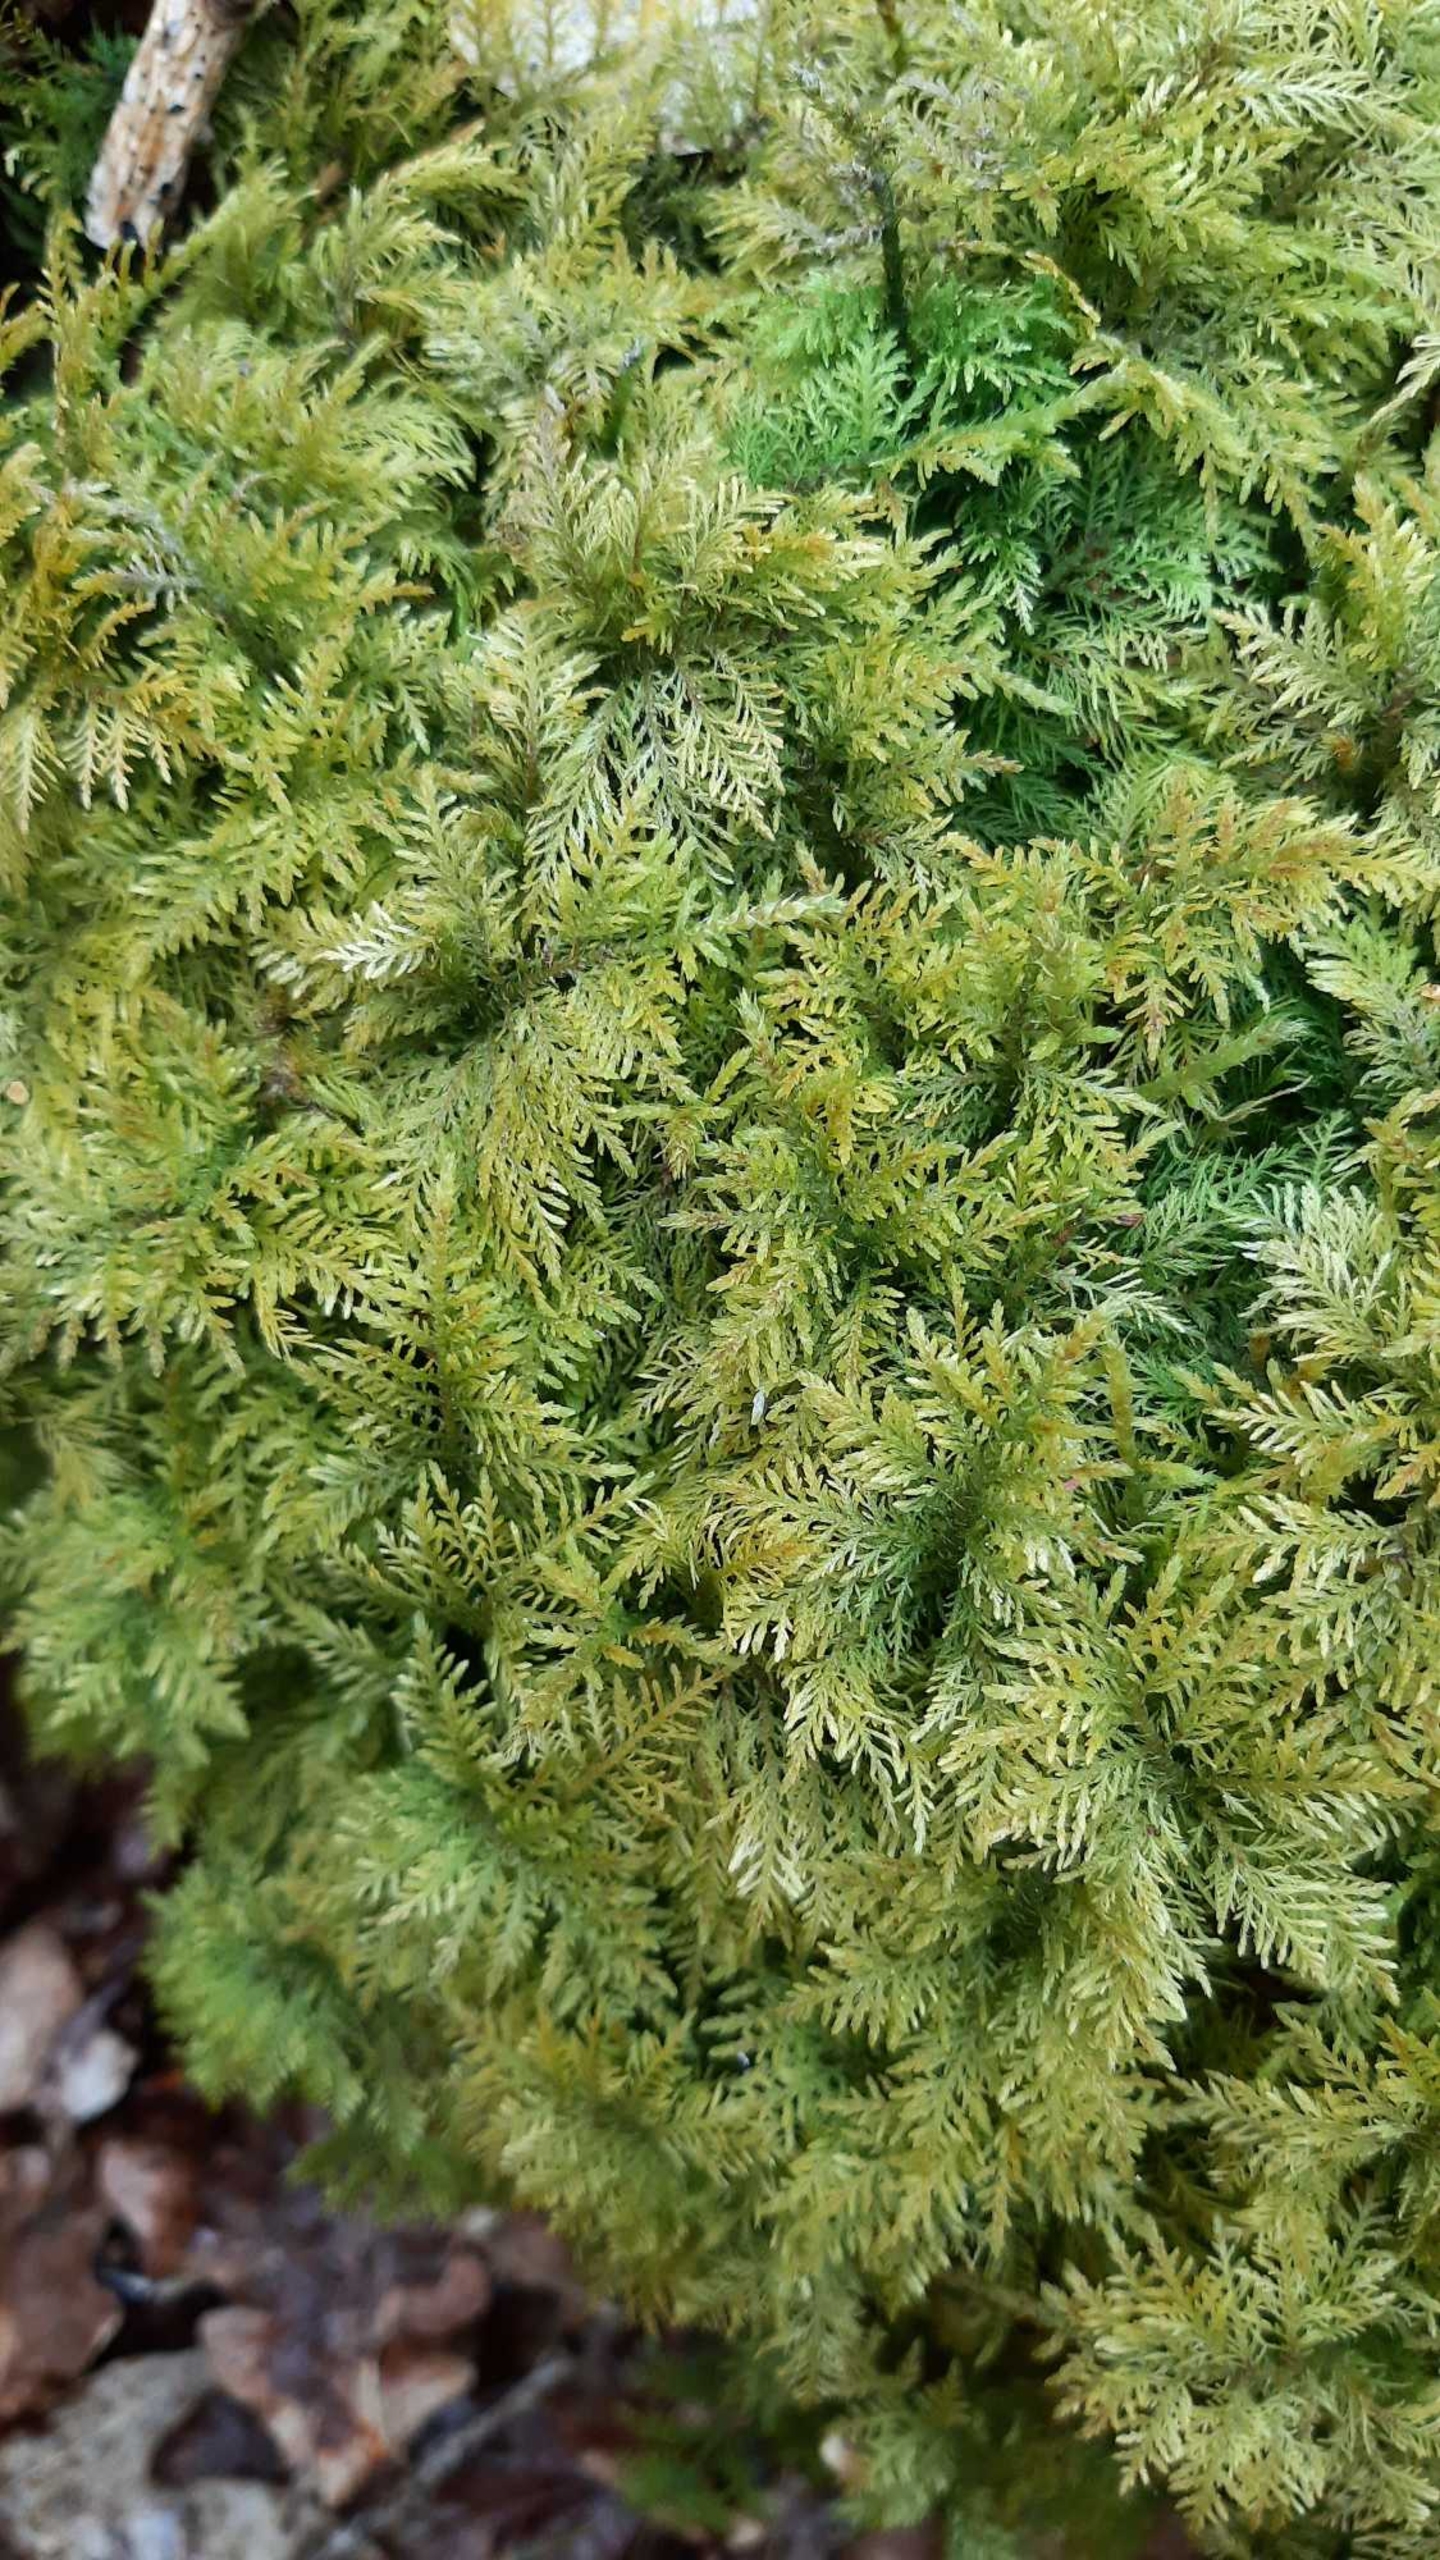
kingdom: Plantae
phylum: Bryophyta
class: Bryopsida
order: Hypnales
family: Thuidiaceae
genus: Thuidium
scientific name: Thuidium tamariscinum
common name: Pryd-bregnemos
